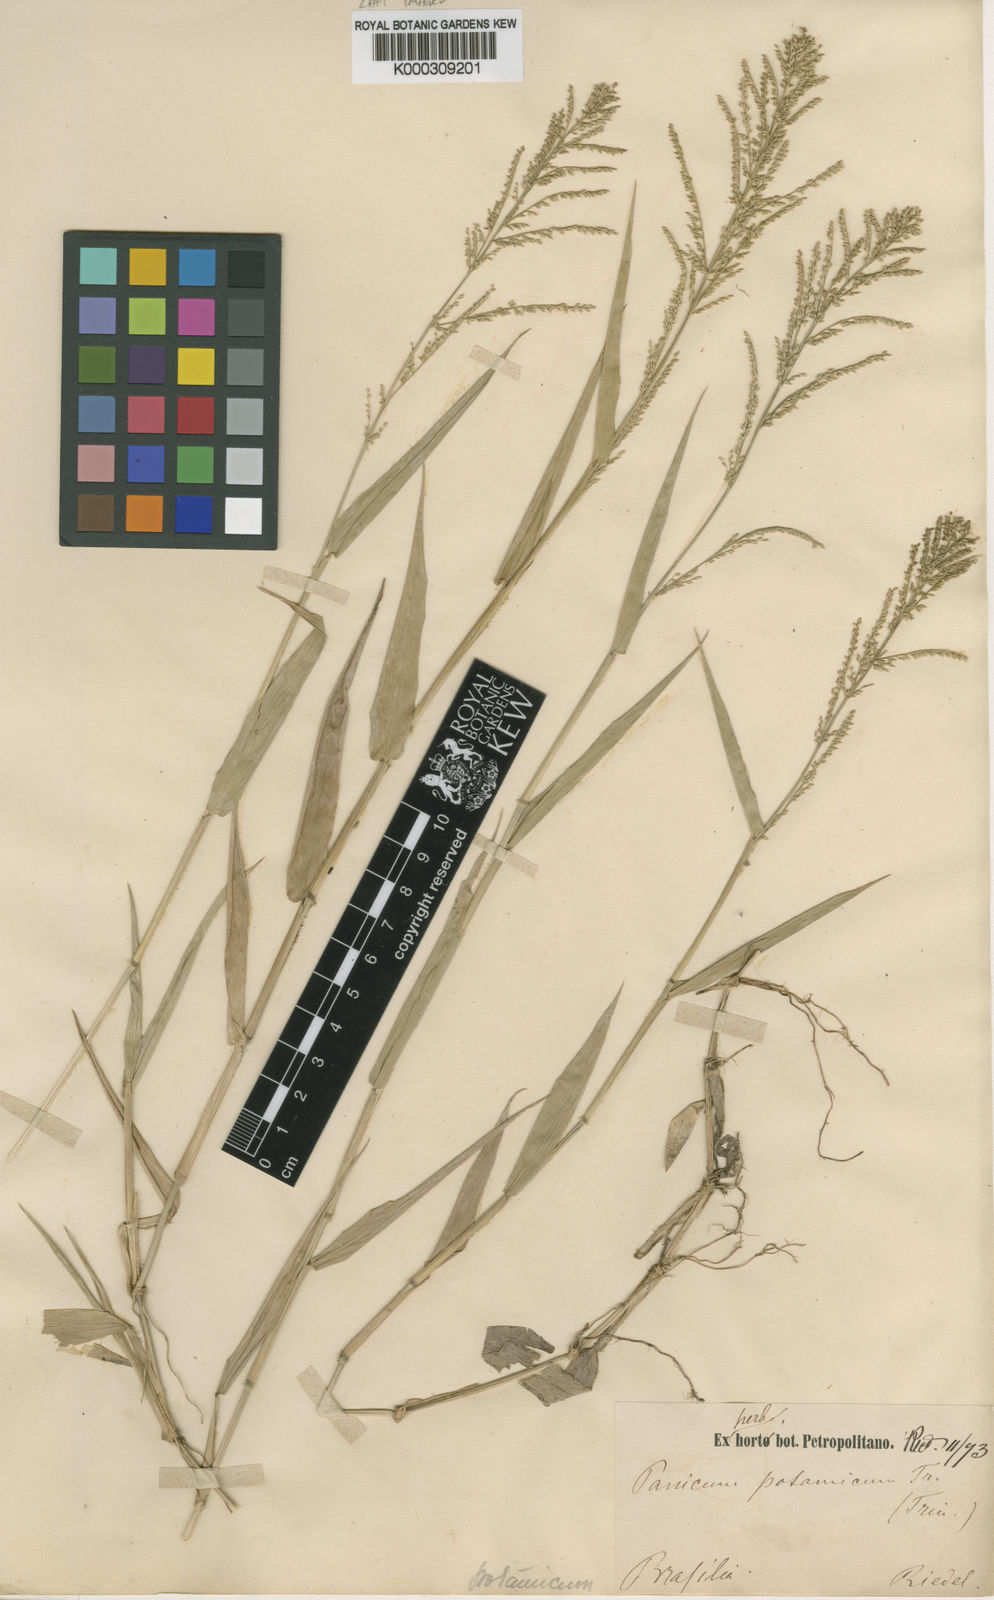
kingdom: Plantae
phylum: Tracheophyta
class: Liliopsida
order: Poales
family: Poaceae
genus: Rugoloa
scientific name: Rugoloa polygonata
